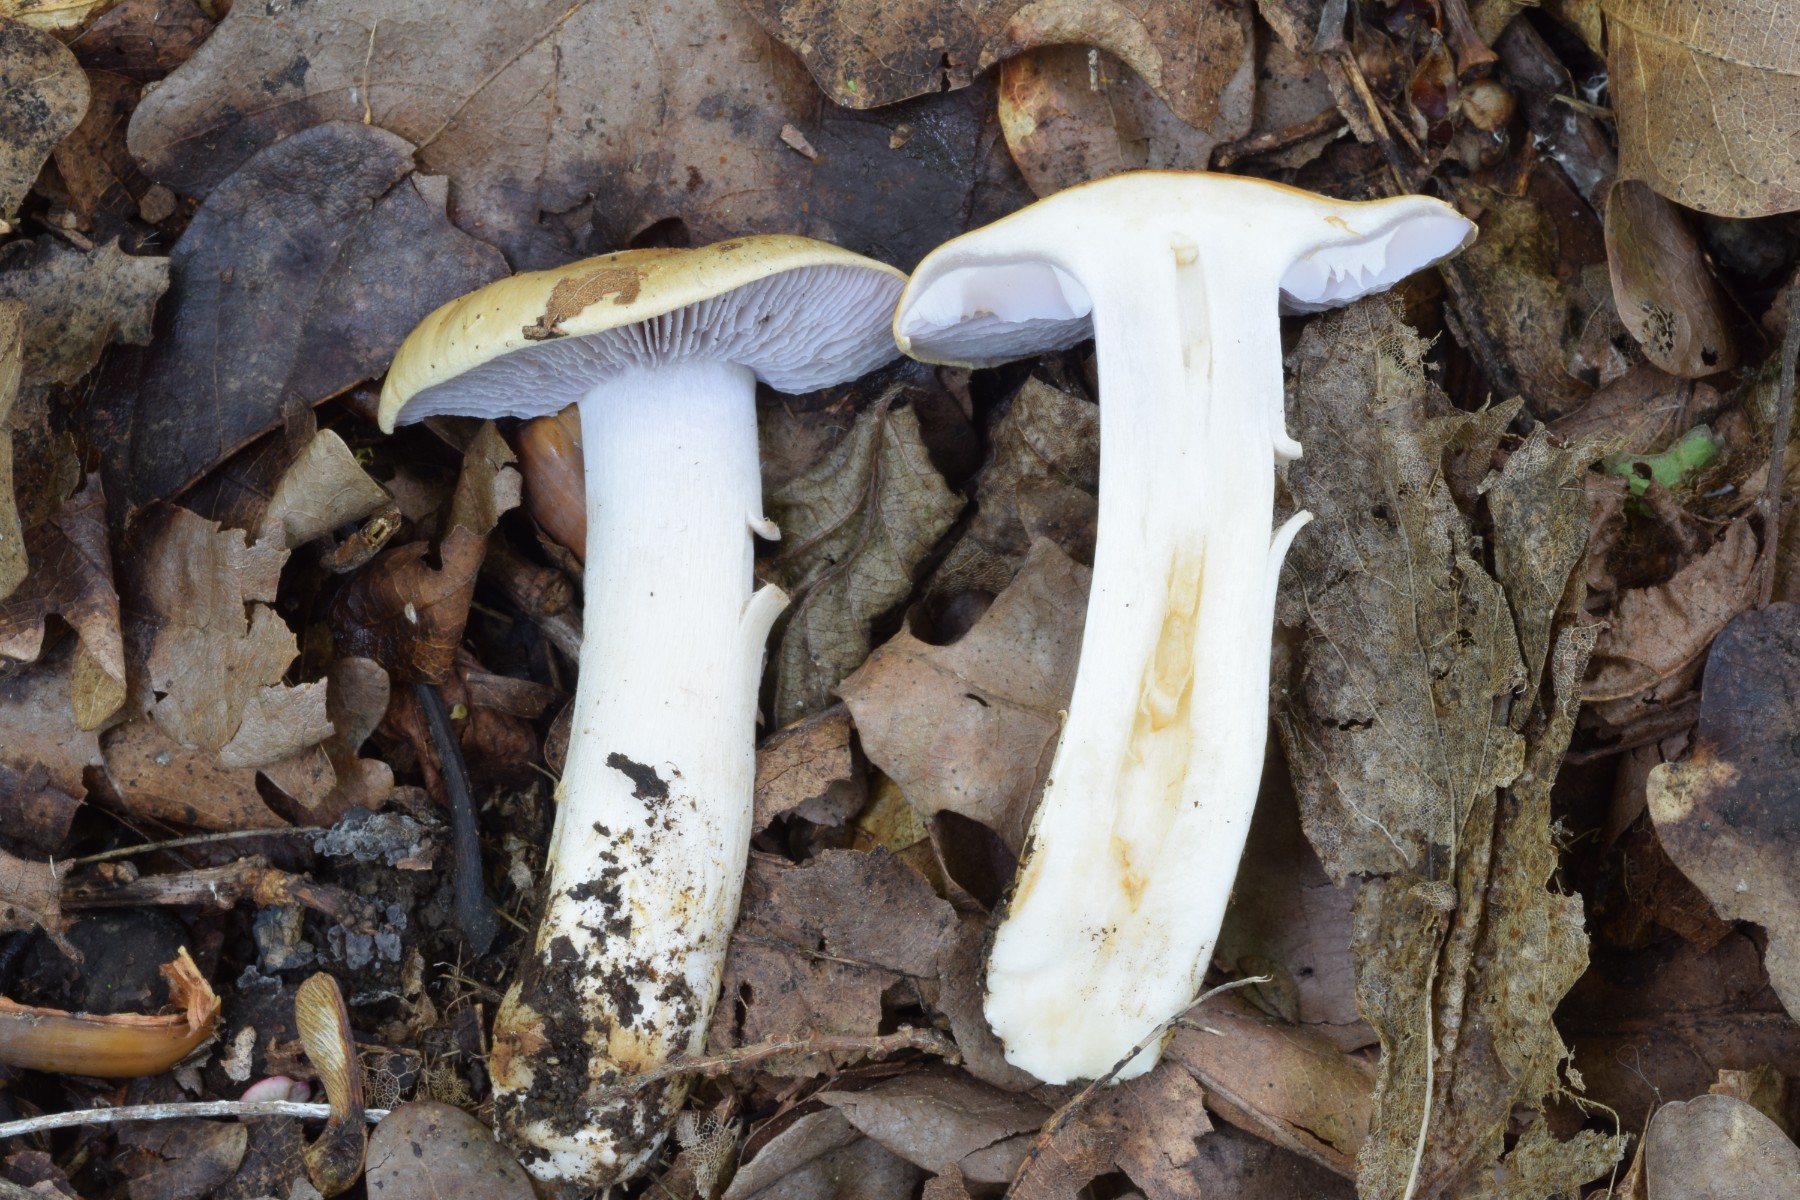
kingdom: Fungi
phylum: Basidiomycota
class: Agaricomycetes
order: Agaricales
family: Cortinariaceae
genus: Phlegmacium
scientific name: Phlegmacium tiliae
